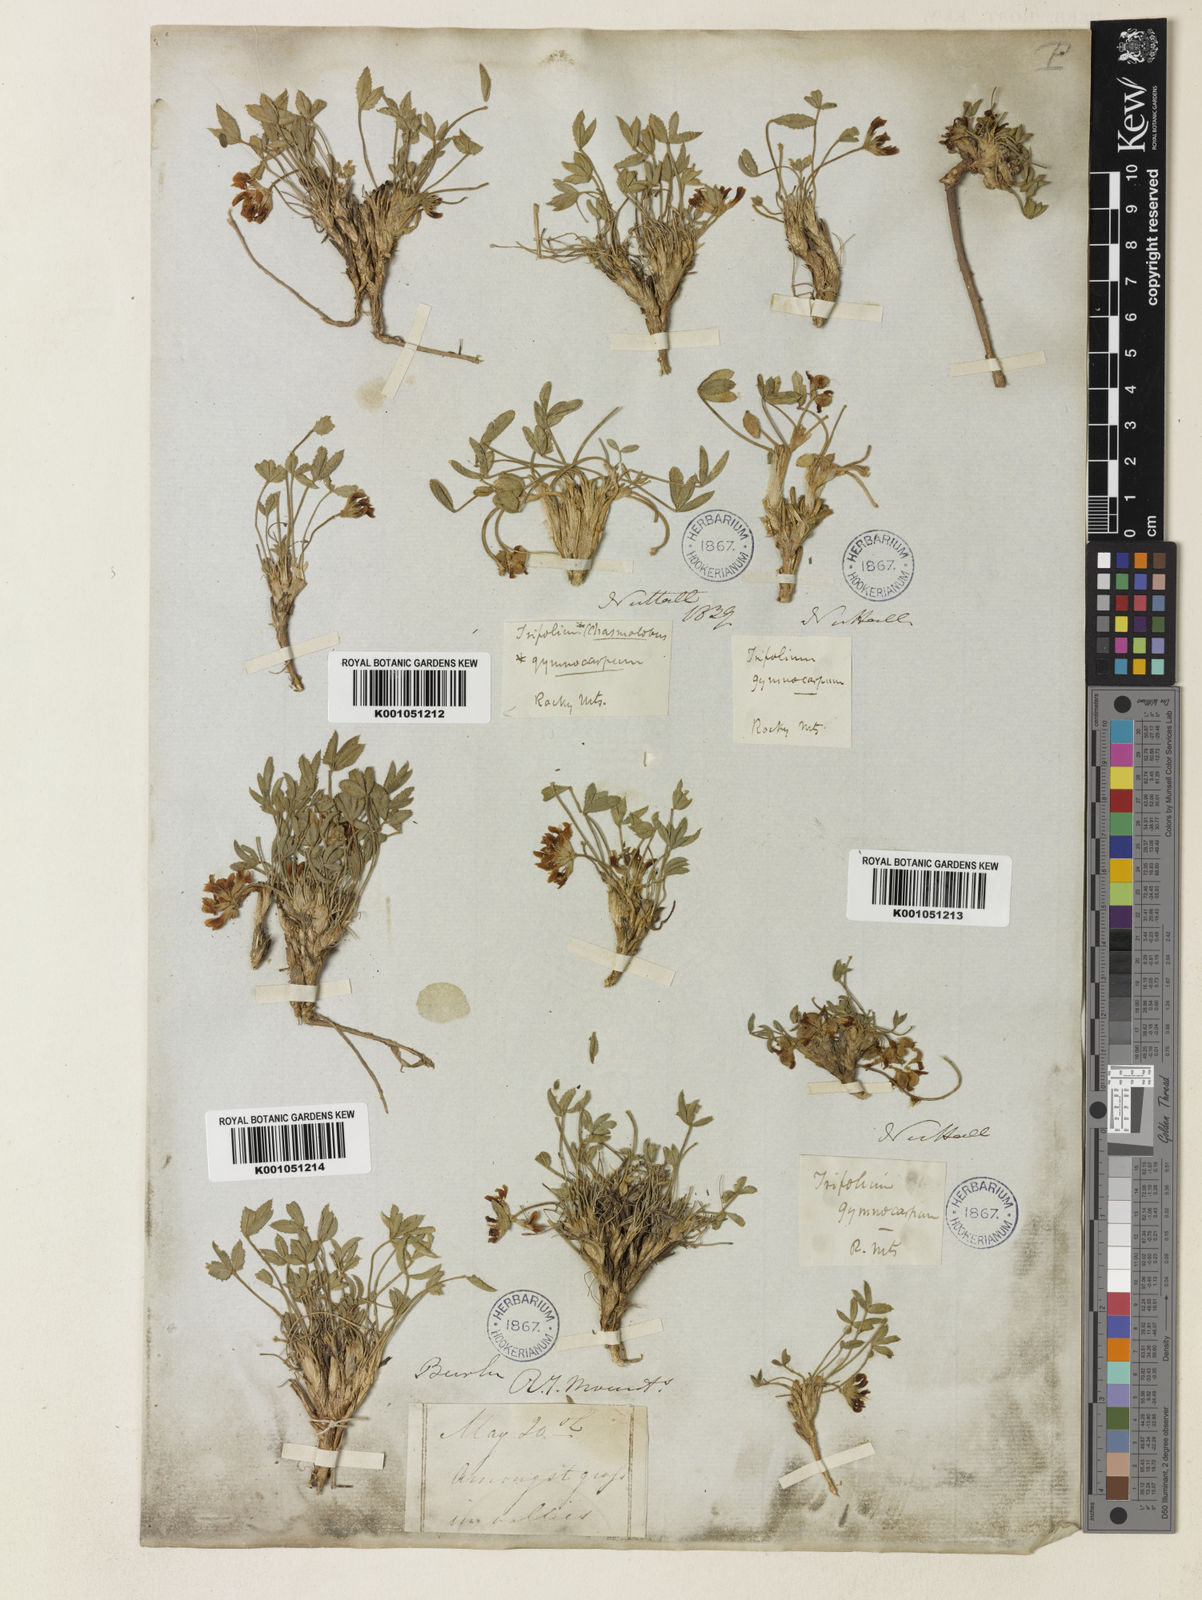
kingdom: Plantae
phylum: Tracheophyta
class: Magnoliopsida
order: Fabales
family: Fabaceae
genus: Trifolium
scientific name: Trifolium gymnocarpon
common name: Tufted clover
